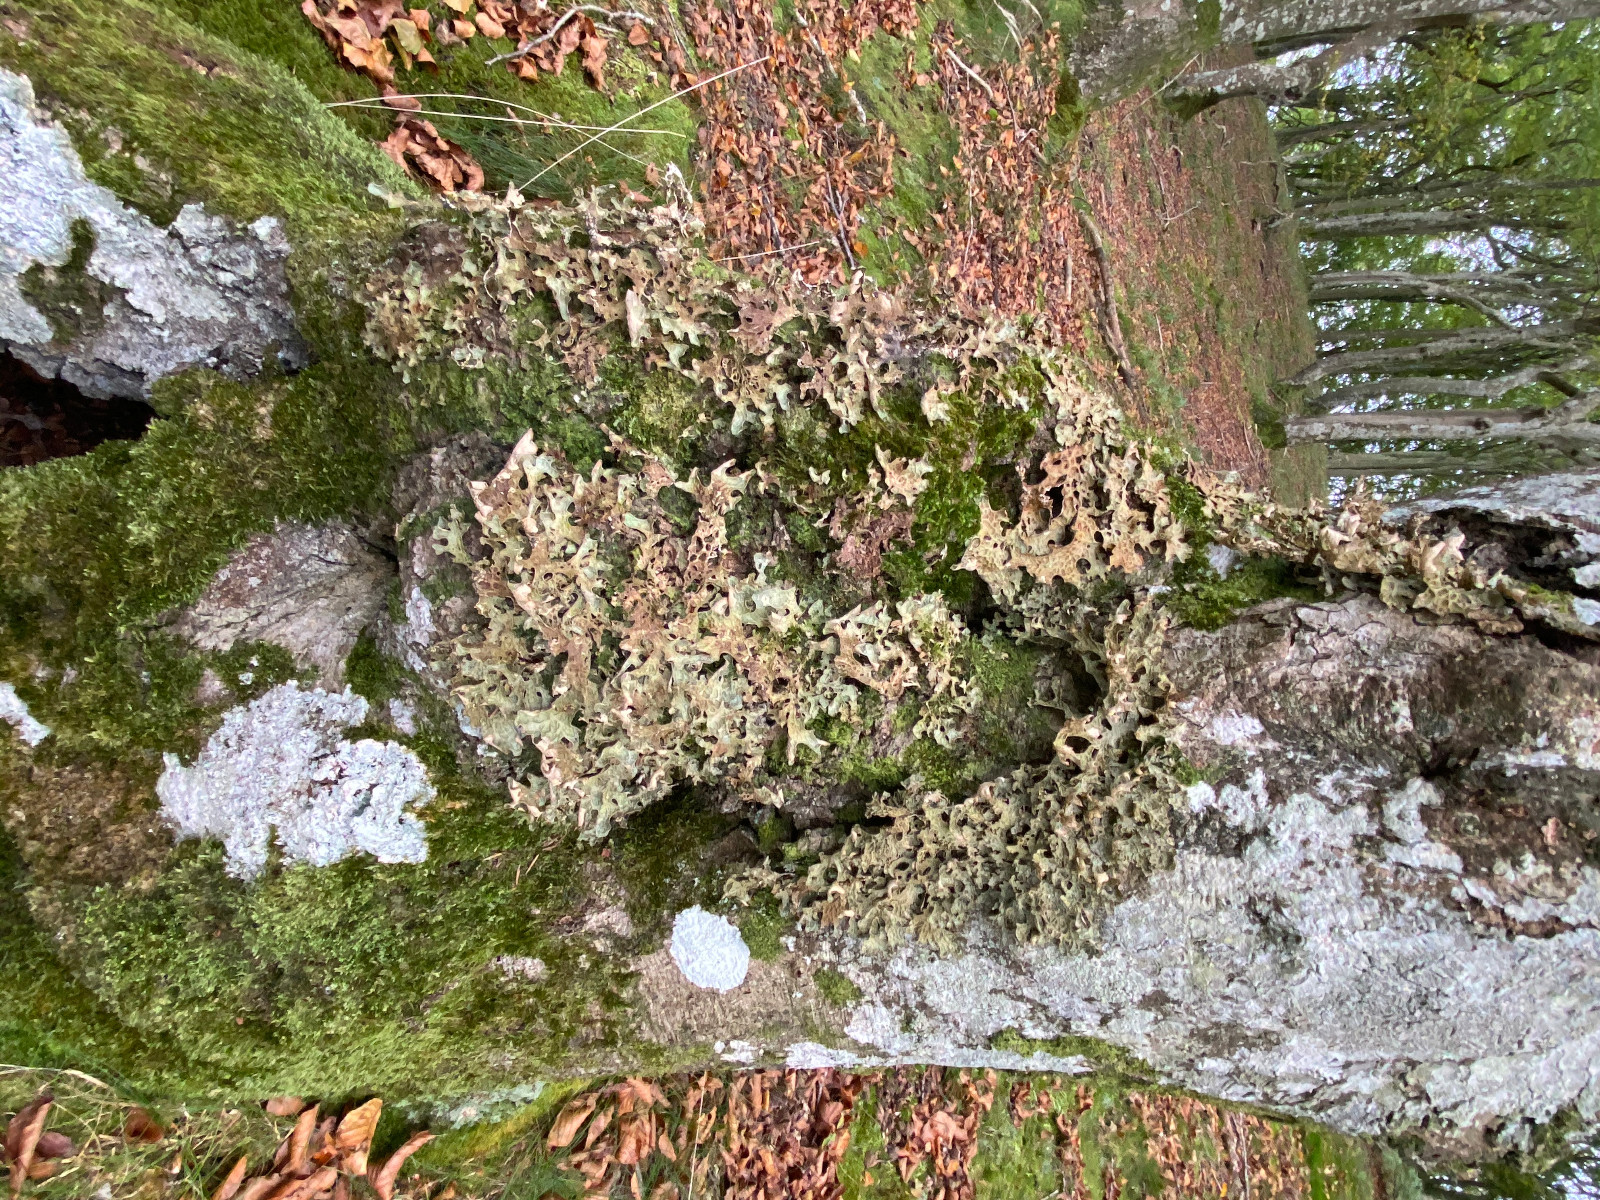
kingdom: Fungi
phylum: Ascomycota
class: Lecanoromycetes
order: Peltigerales
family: Lobariaceae
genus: Lobaria
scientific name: Lobaria pulmonaria
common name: almindelig lungelav
